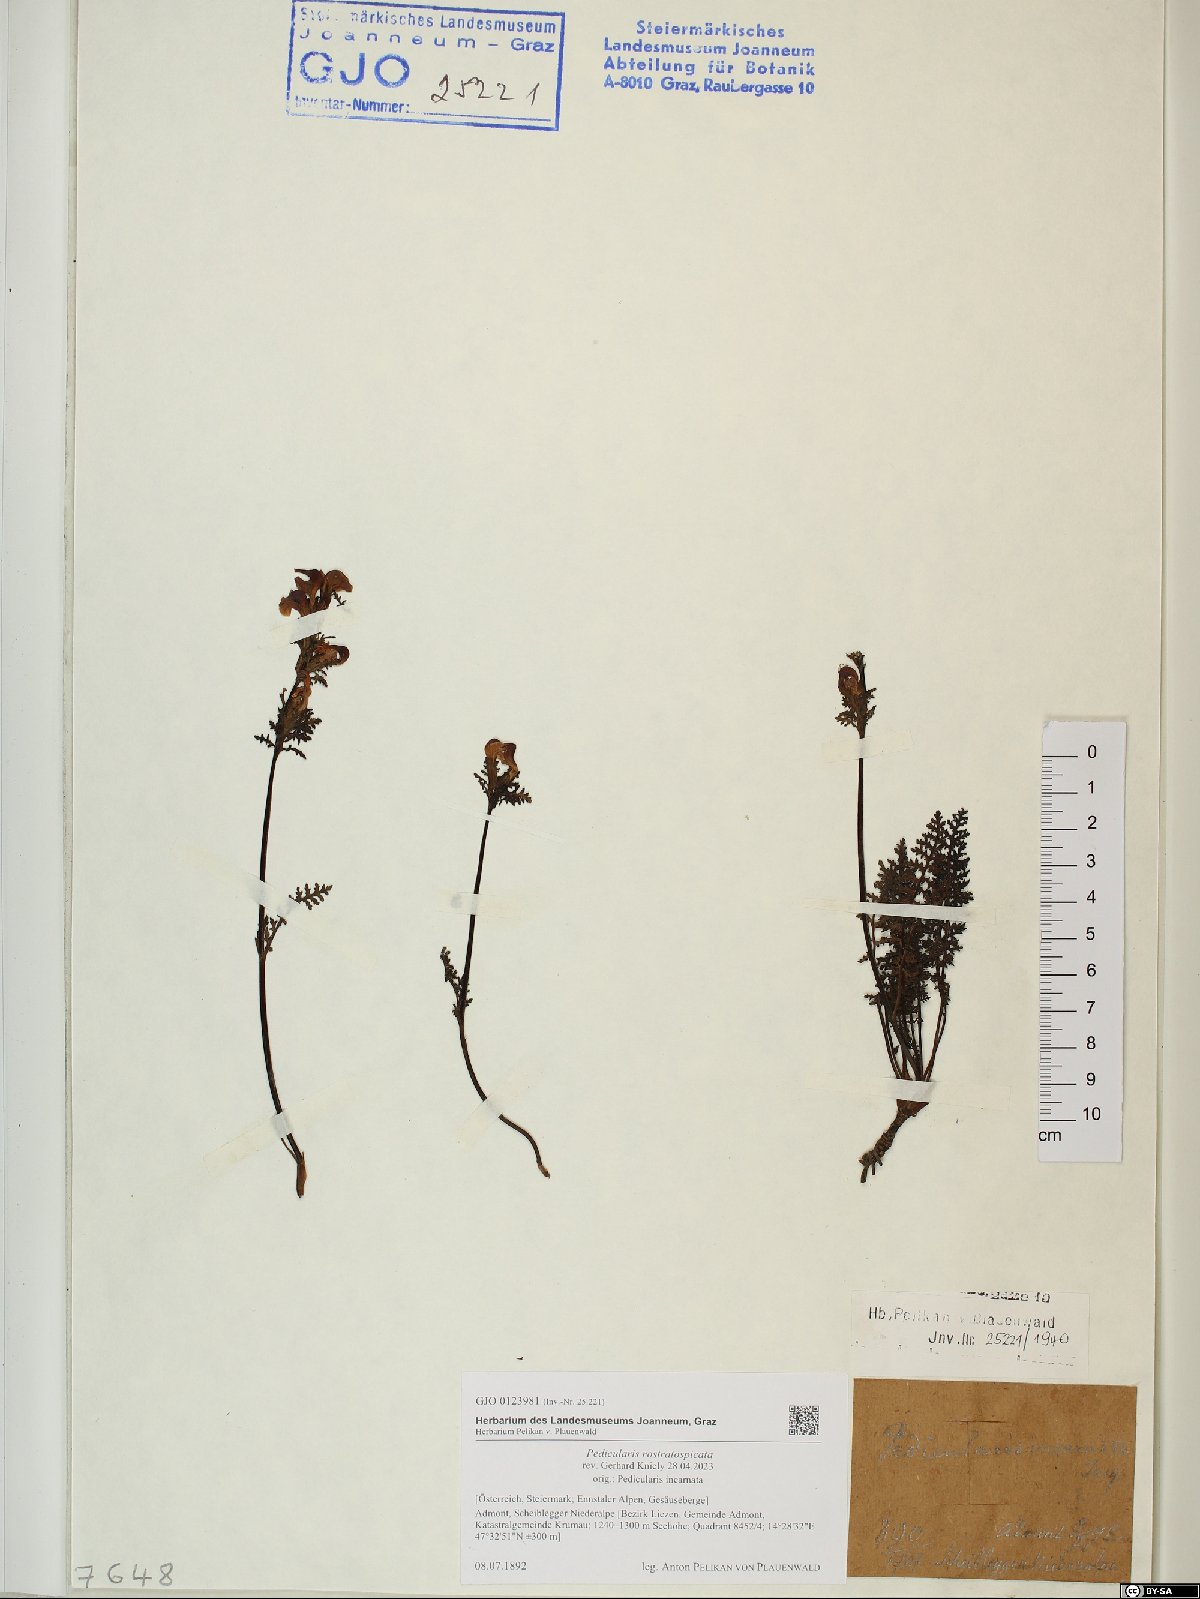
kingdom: Plantae
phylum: Tracheophyta
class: Magnoliopsida
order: Lamiales
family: Orobanchaceae
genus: Pedicularis
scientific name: Pedicularis rostratospicata
